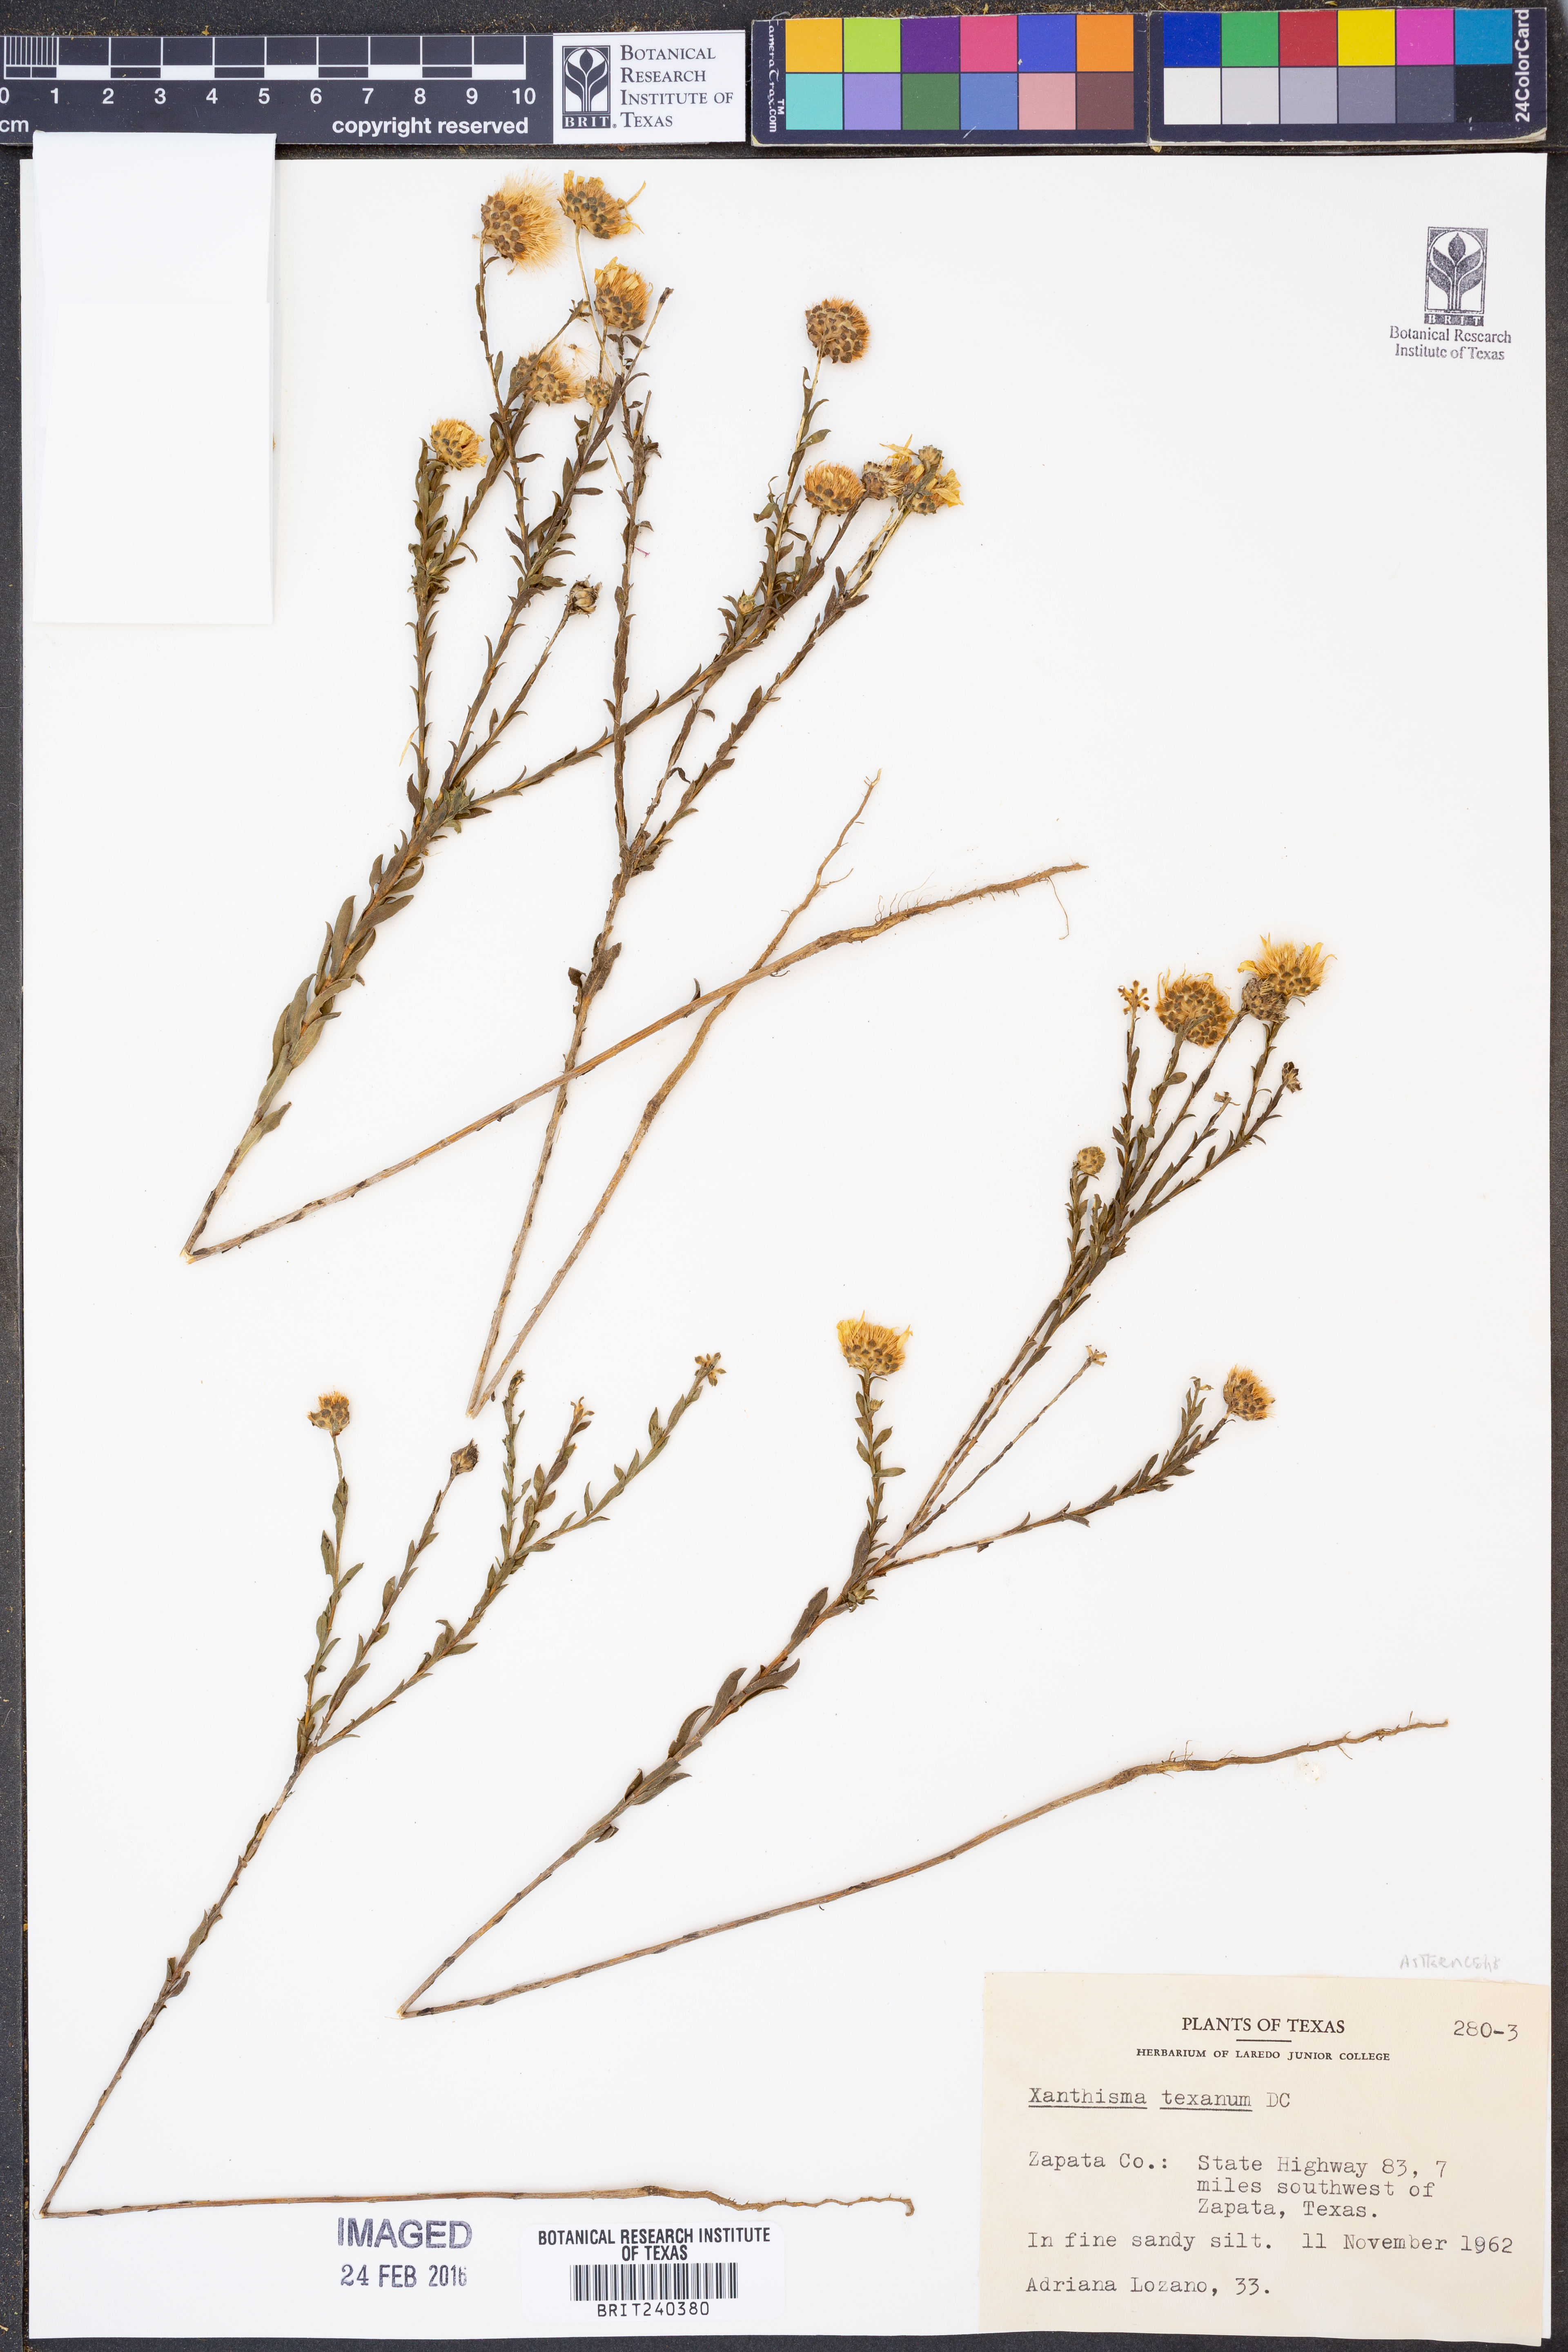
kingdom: Plantae
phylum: Tracheophyta
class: Magnoliopsida
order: Asterales
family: Asteraceae
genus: Xanthisma
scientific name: Xanthisma texanum
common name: Texas sleepy daisy
